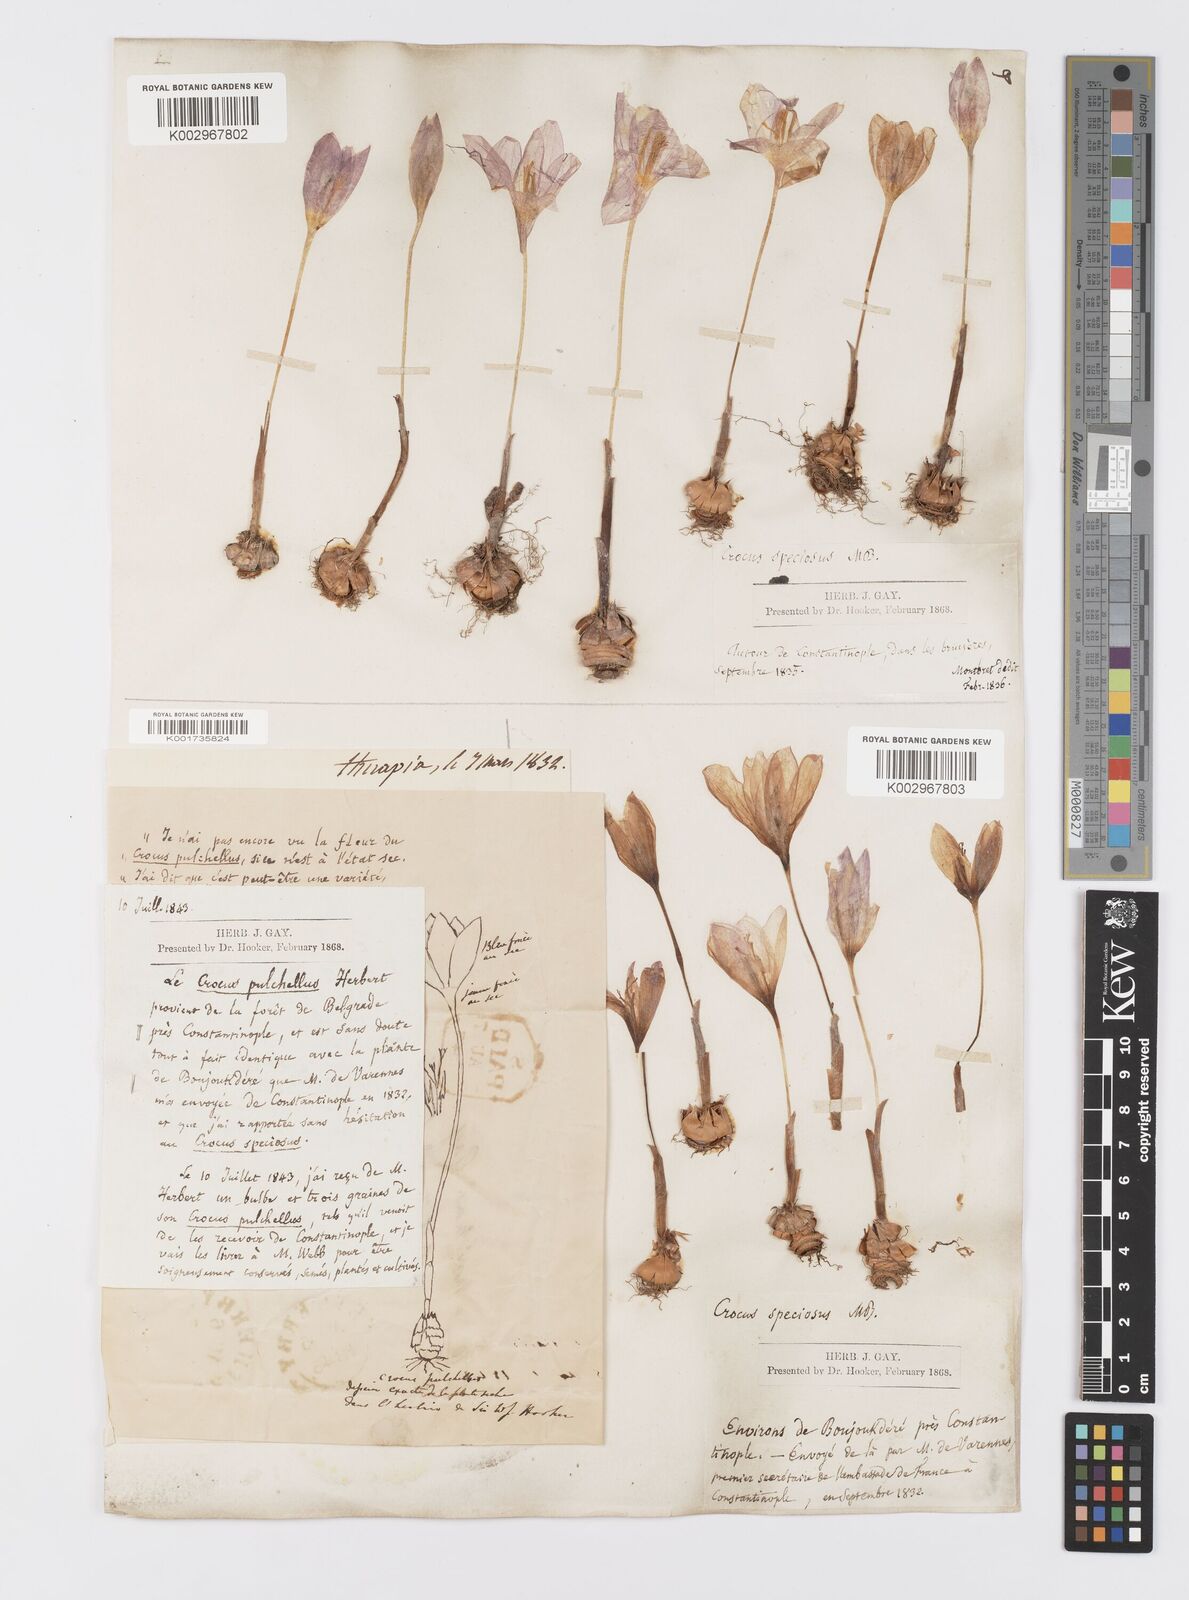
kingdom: Plantae
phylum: Tracheophyta
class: Liliopsida
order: Asparagales
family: Iridaceae
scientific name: Iridaceae
